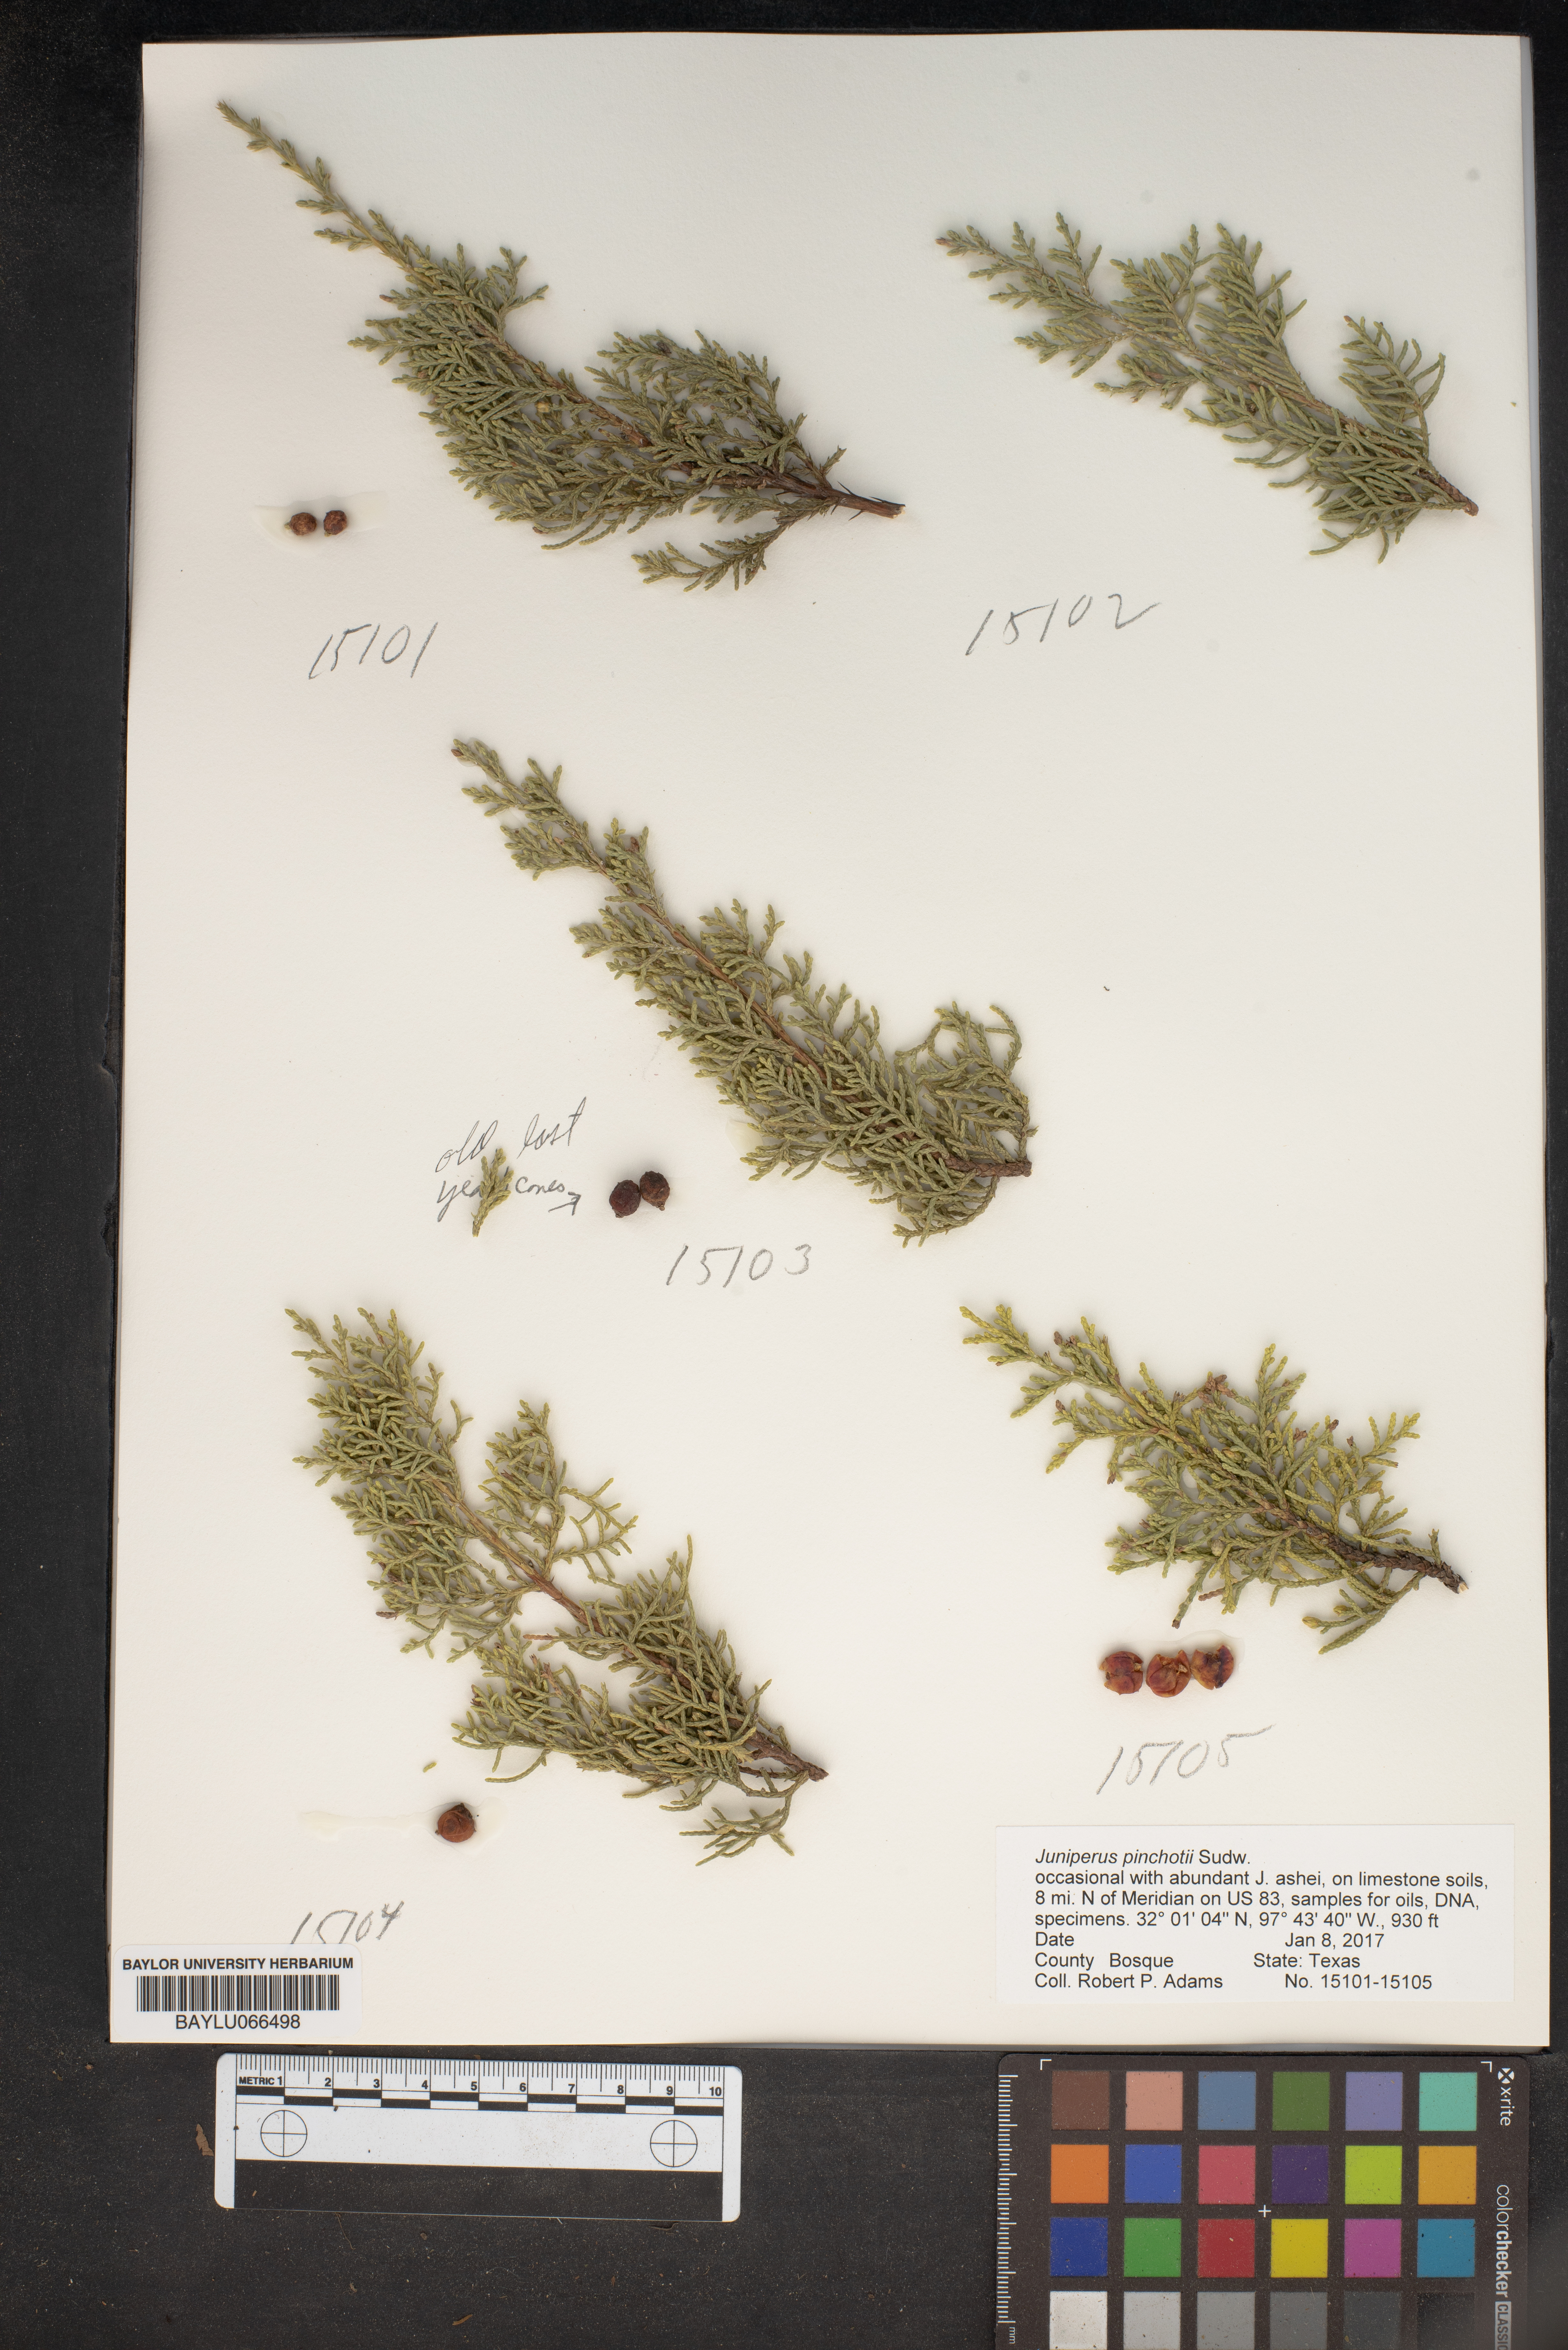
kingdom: Plantae
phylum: Tracheophyta
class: Pinopsida
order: Pinales
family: Cupressaceae
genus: Juniperus
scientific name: Juniperus pinchotii
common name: Pinchot juniper
